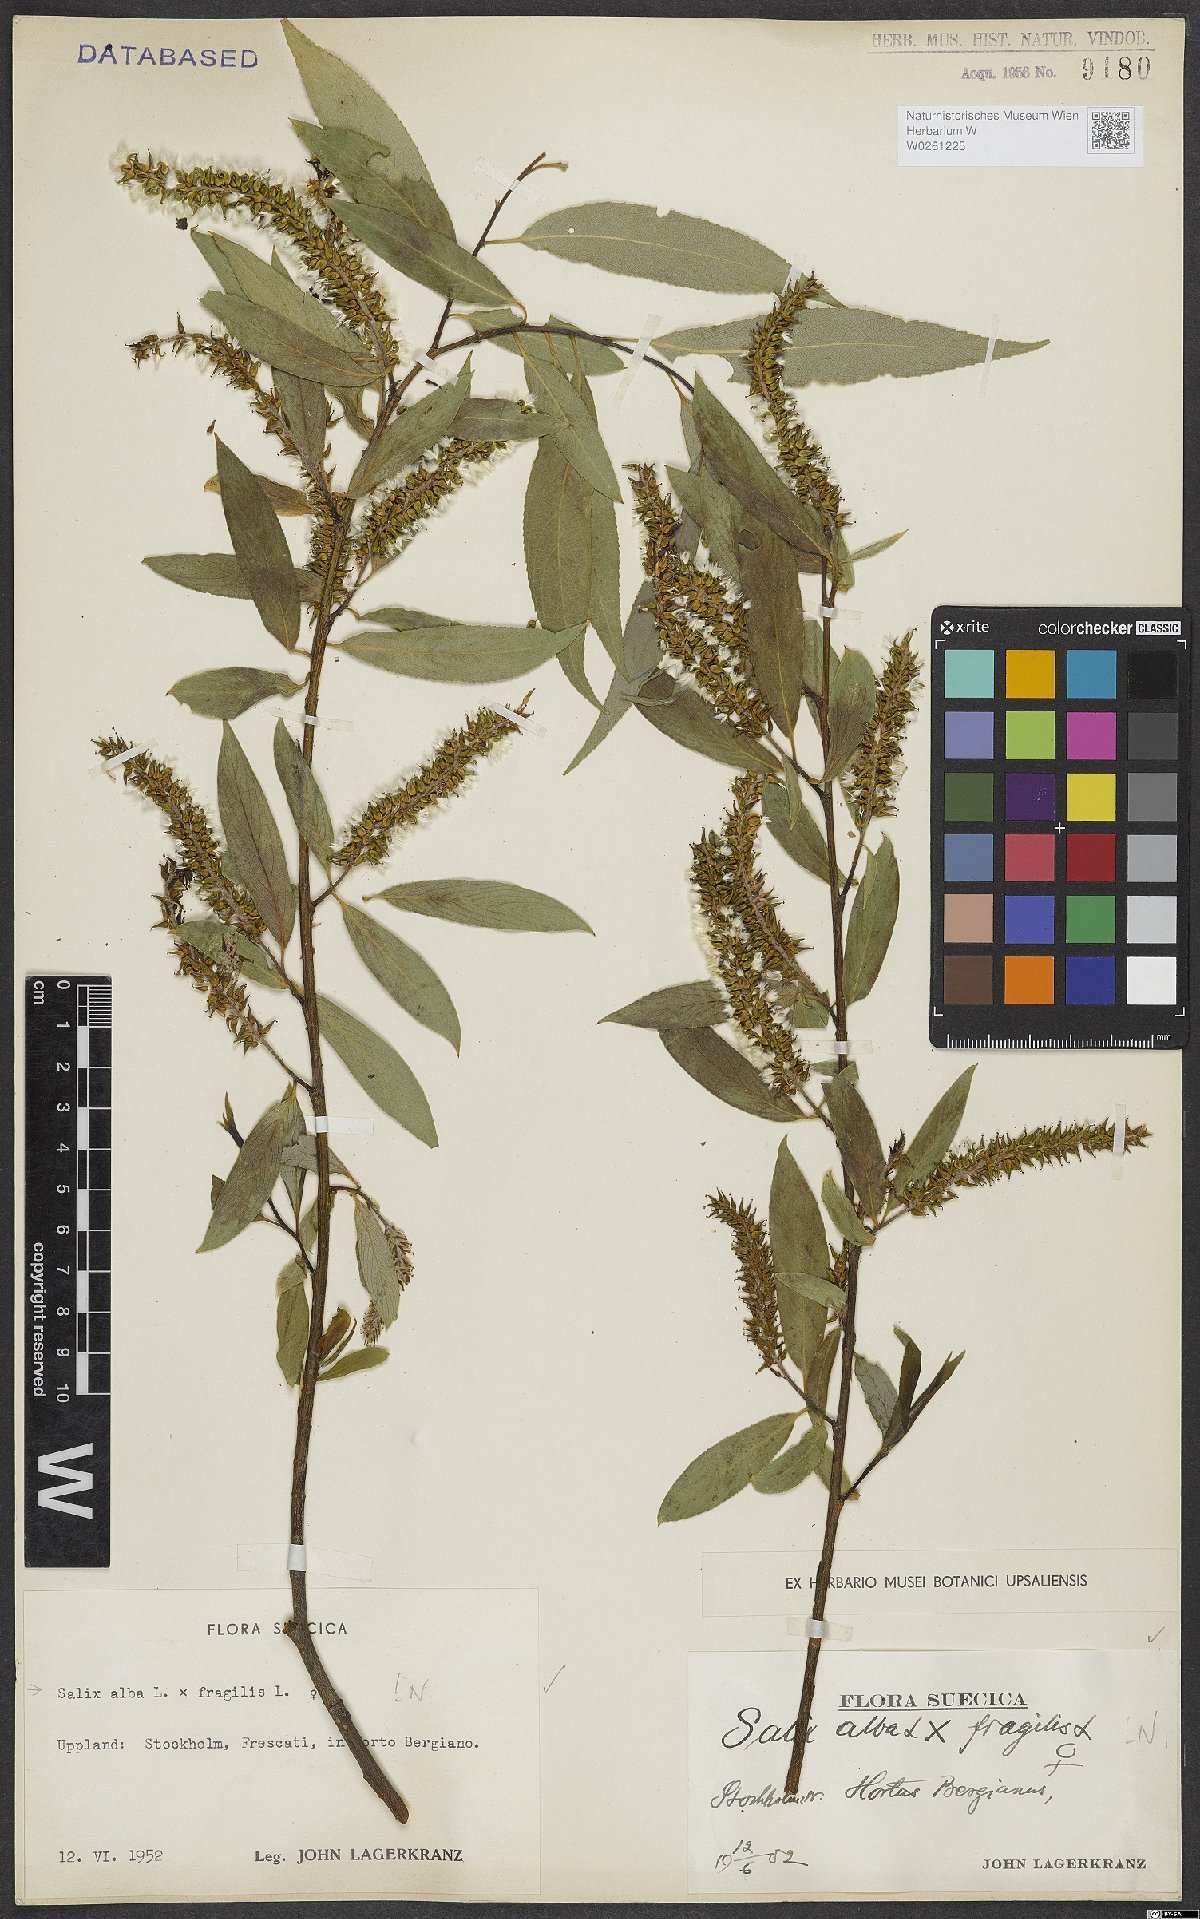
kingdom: Plantae
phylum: Tracheophyta
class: Magnoliopsida
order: Malpighiales
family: Salicaceae
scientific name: Salicaceae
